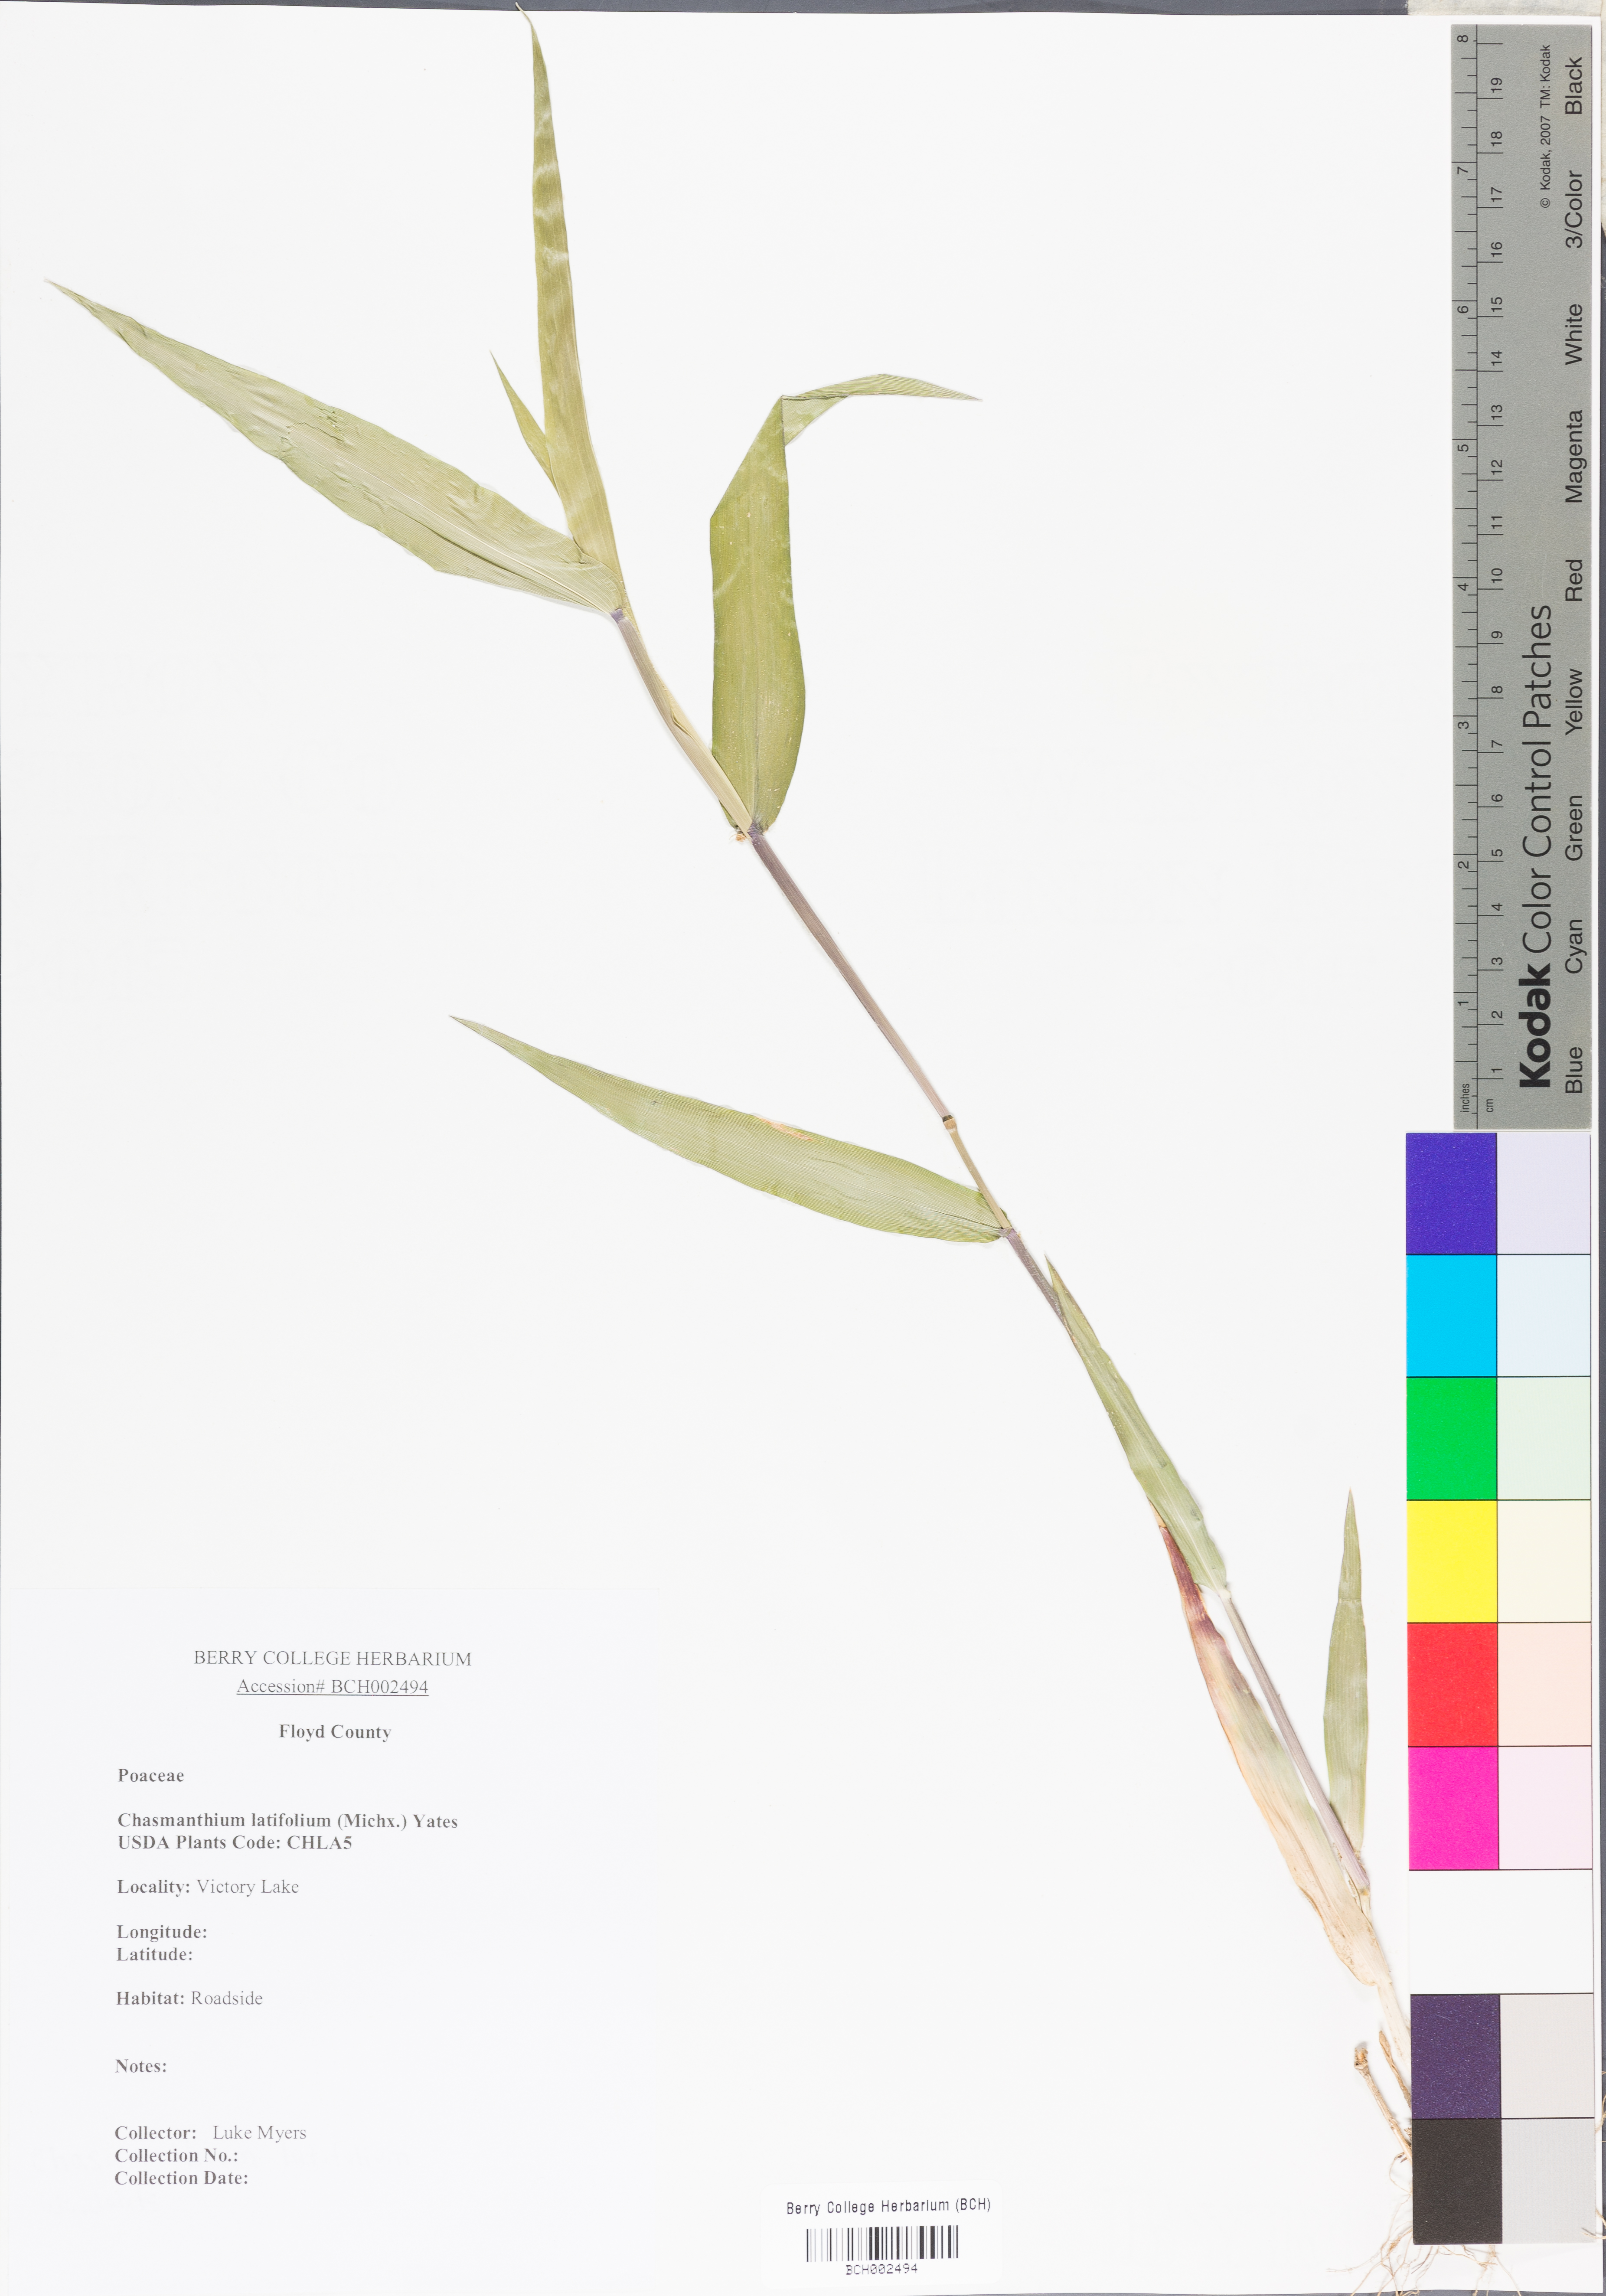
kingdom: Plantae
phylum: Tracheophyta
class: Liliopsida
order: Poales
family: Poaceae
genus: Chasmanthium
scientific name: Chasmanthium latifolium
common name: Broad-leaved chasmanthium
